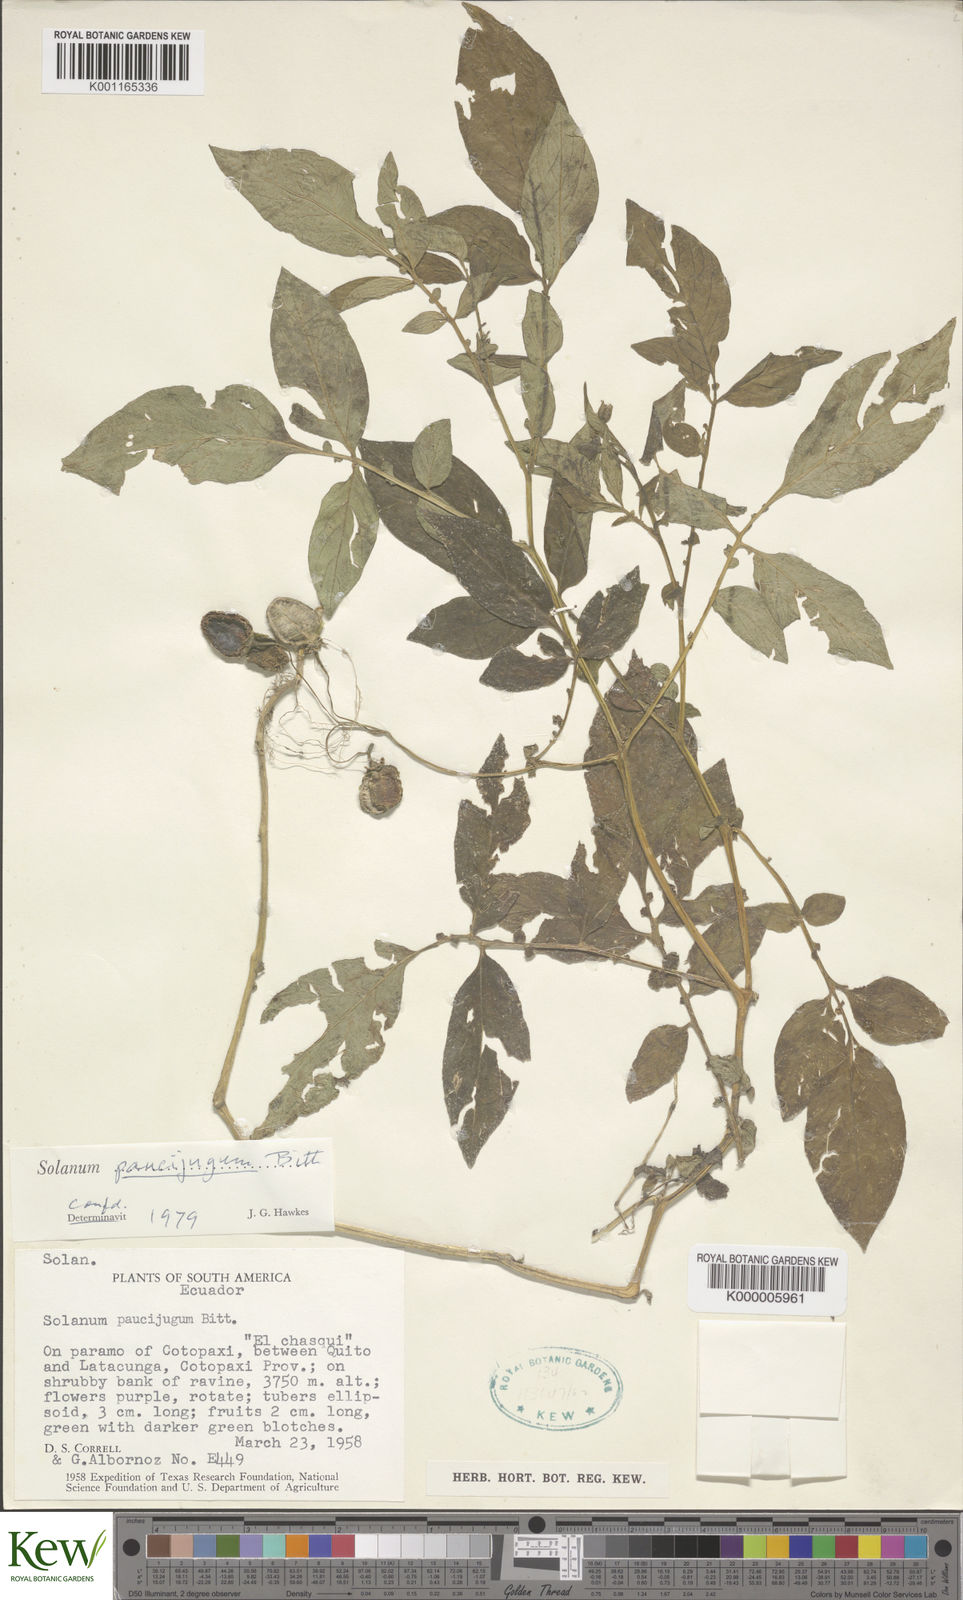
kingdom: Plantae
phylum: Tracheophyta
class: Magnoliopsida
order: Solanales
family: Solanaceae
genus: Solanum
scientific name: Solanum andreanum
